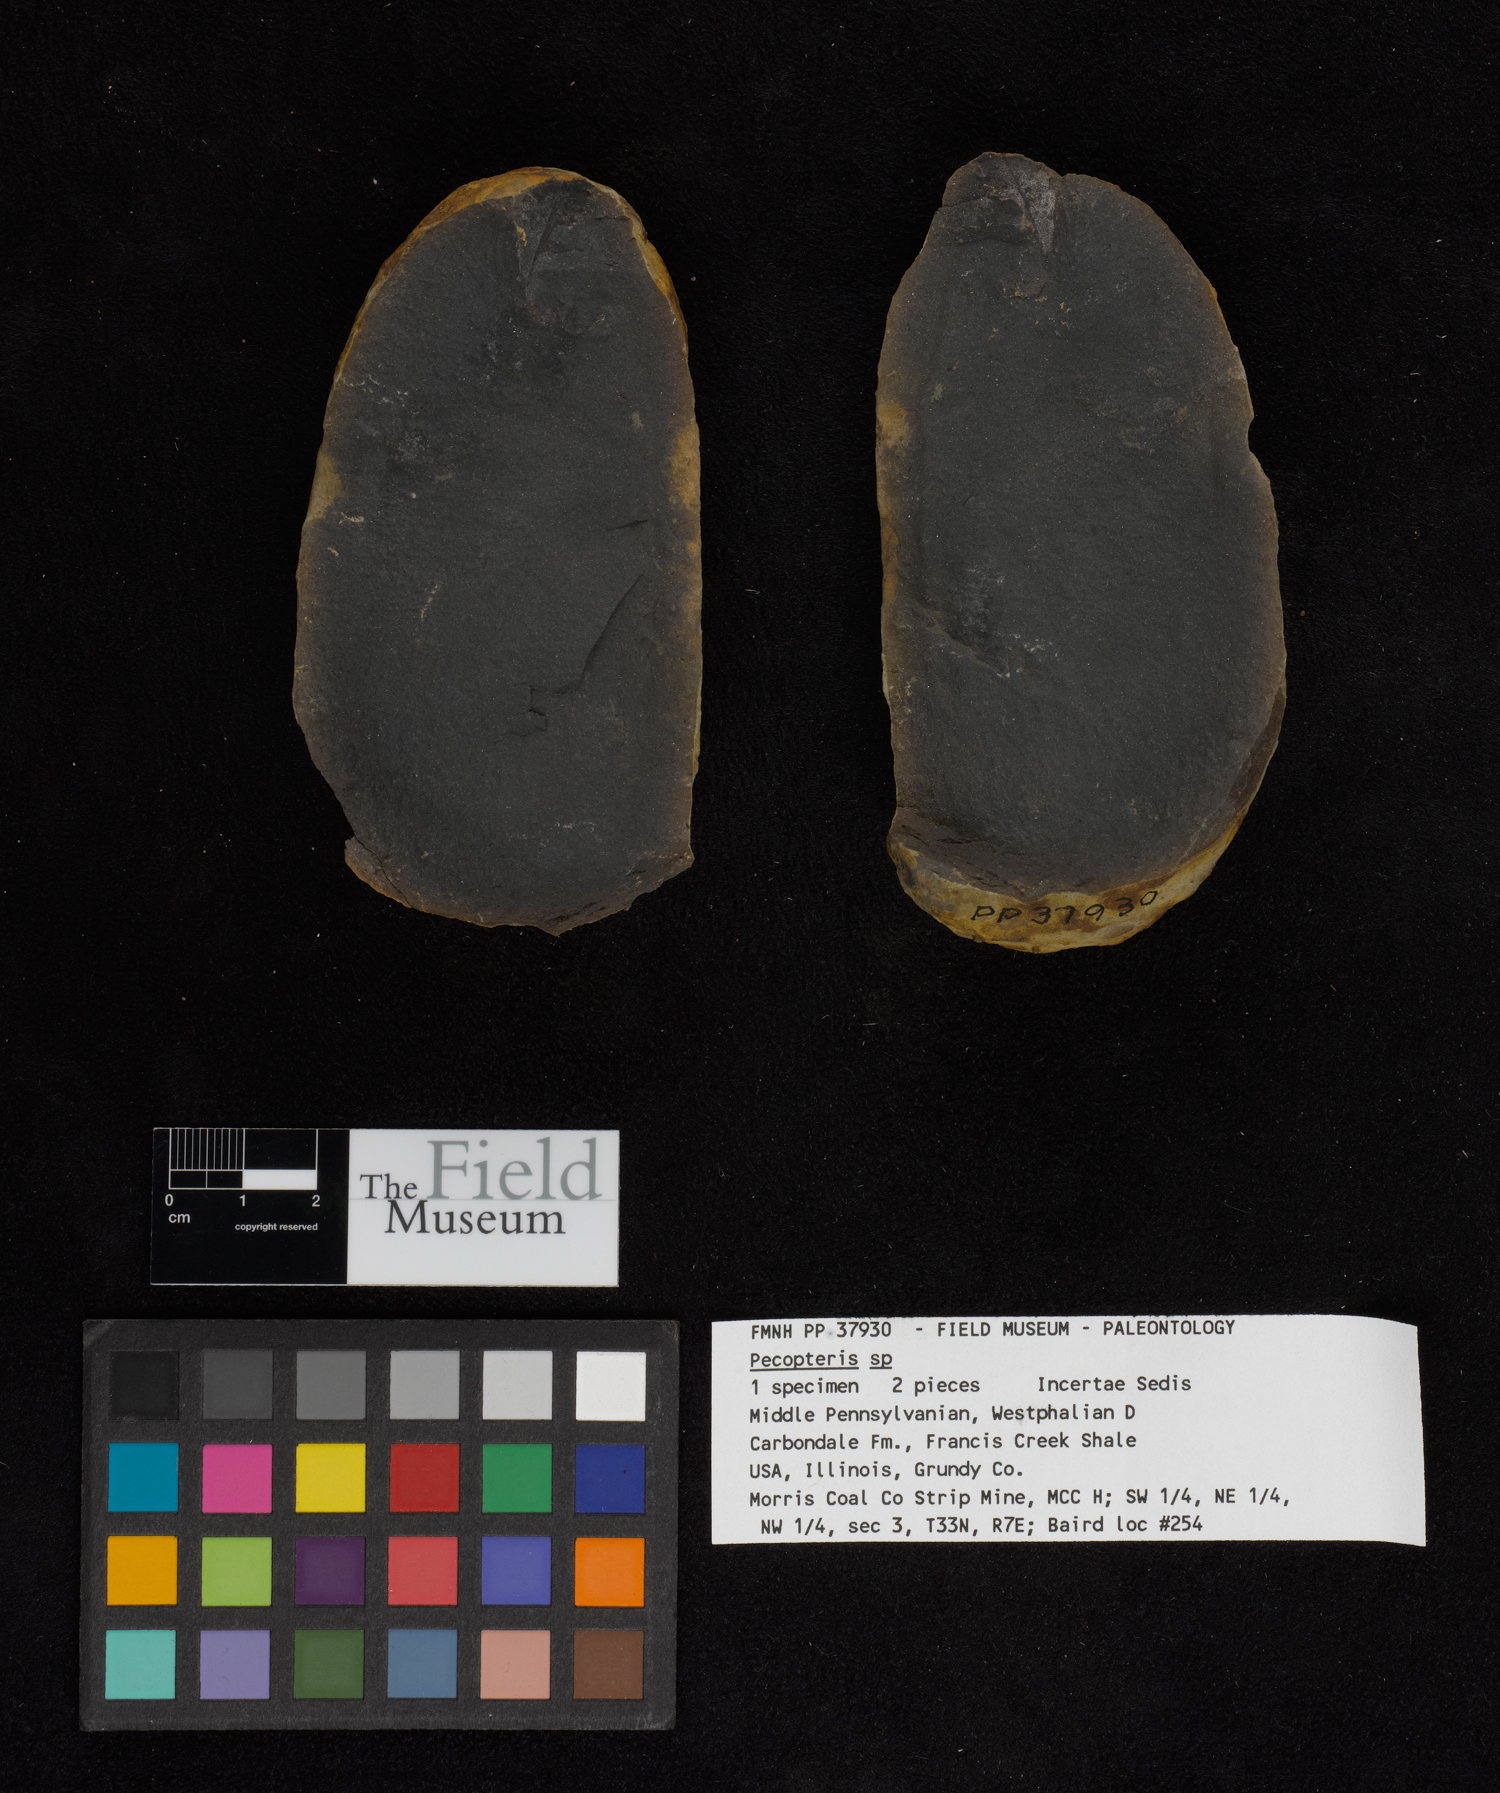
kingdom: Plantae
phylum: Tracheophyta
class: Polypodiopsida
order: Marattiales
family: Asterothecaceae
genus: Pecopteris
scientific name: Pecopteris
